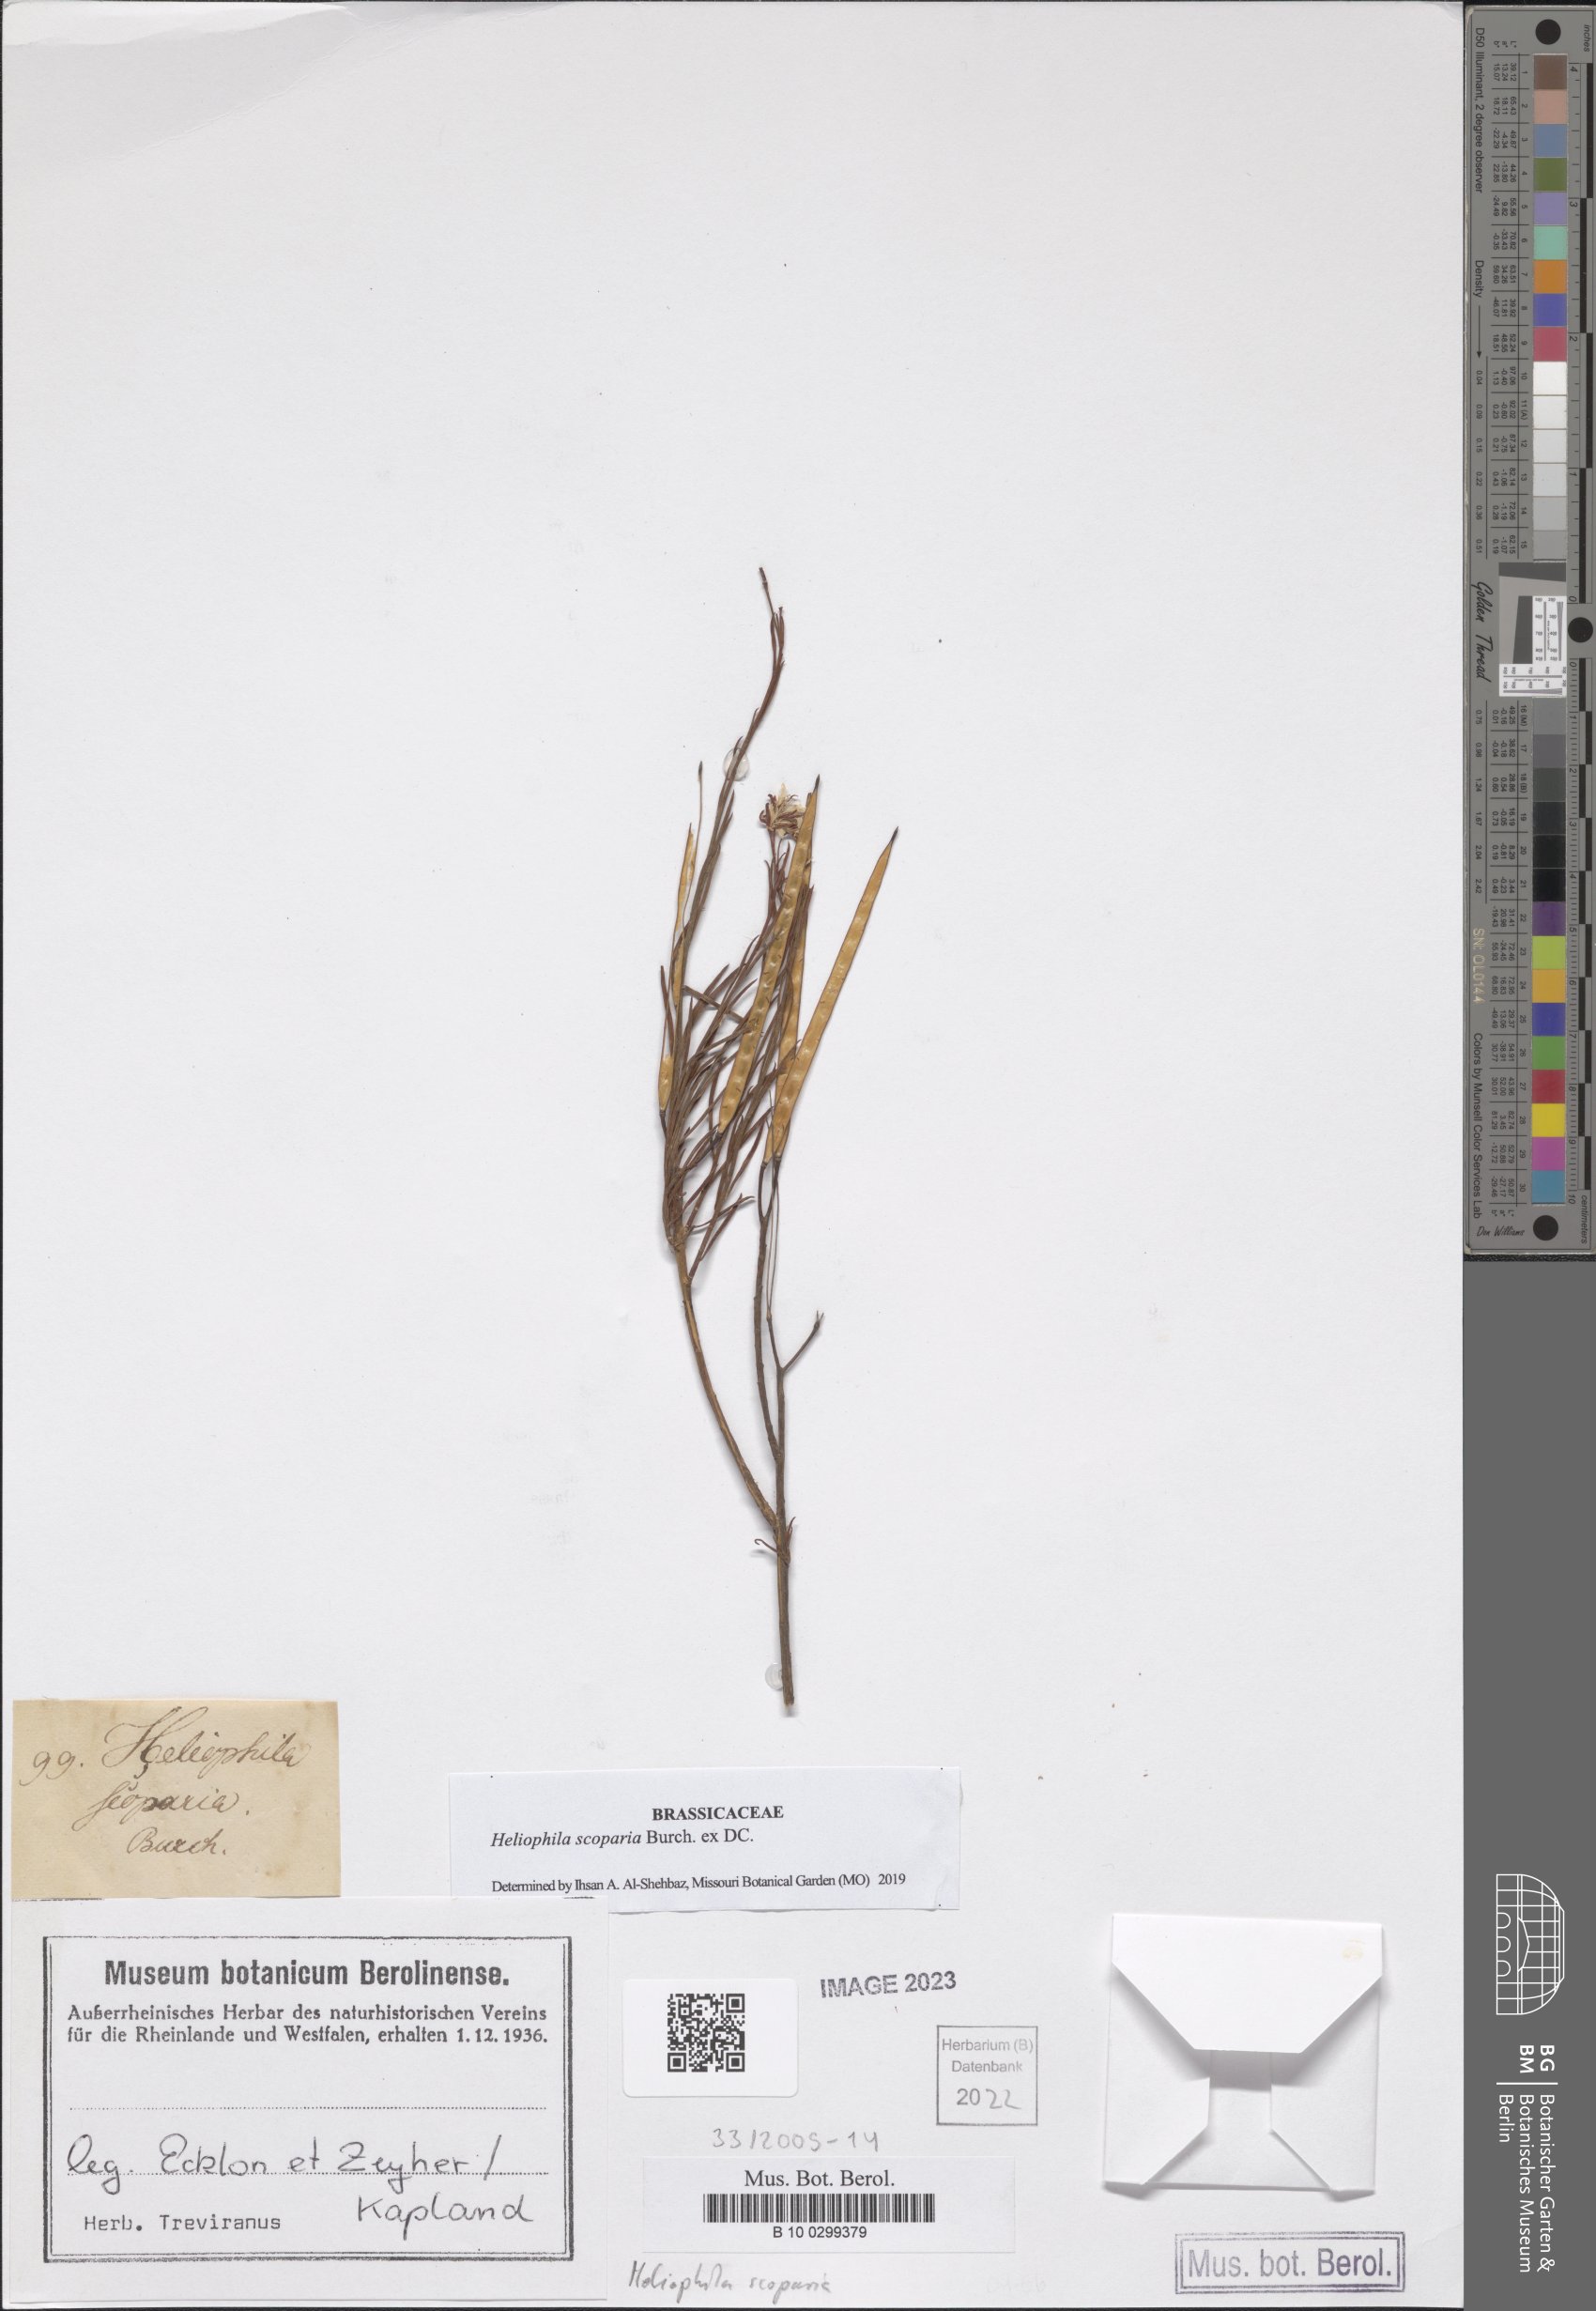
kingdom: Plantae
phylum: Tracheophyta
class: Magnoliopsida
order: Brassicales
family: Brassicaceae
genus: Heliophila
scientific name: Heliophila scoparia
